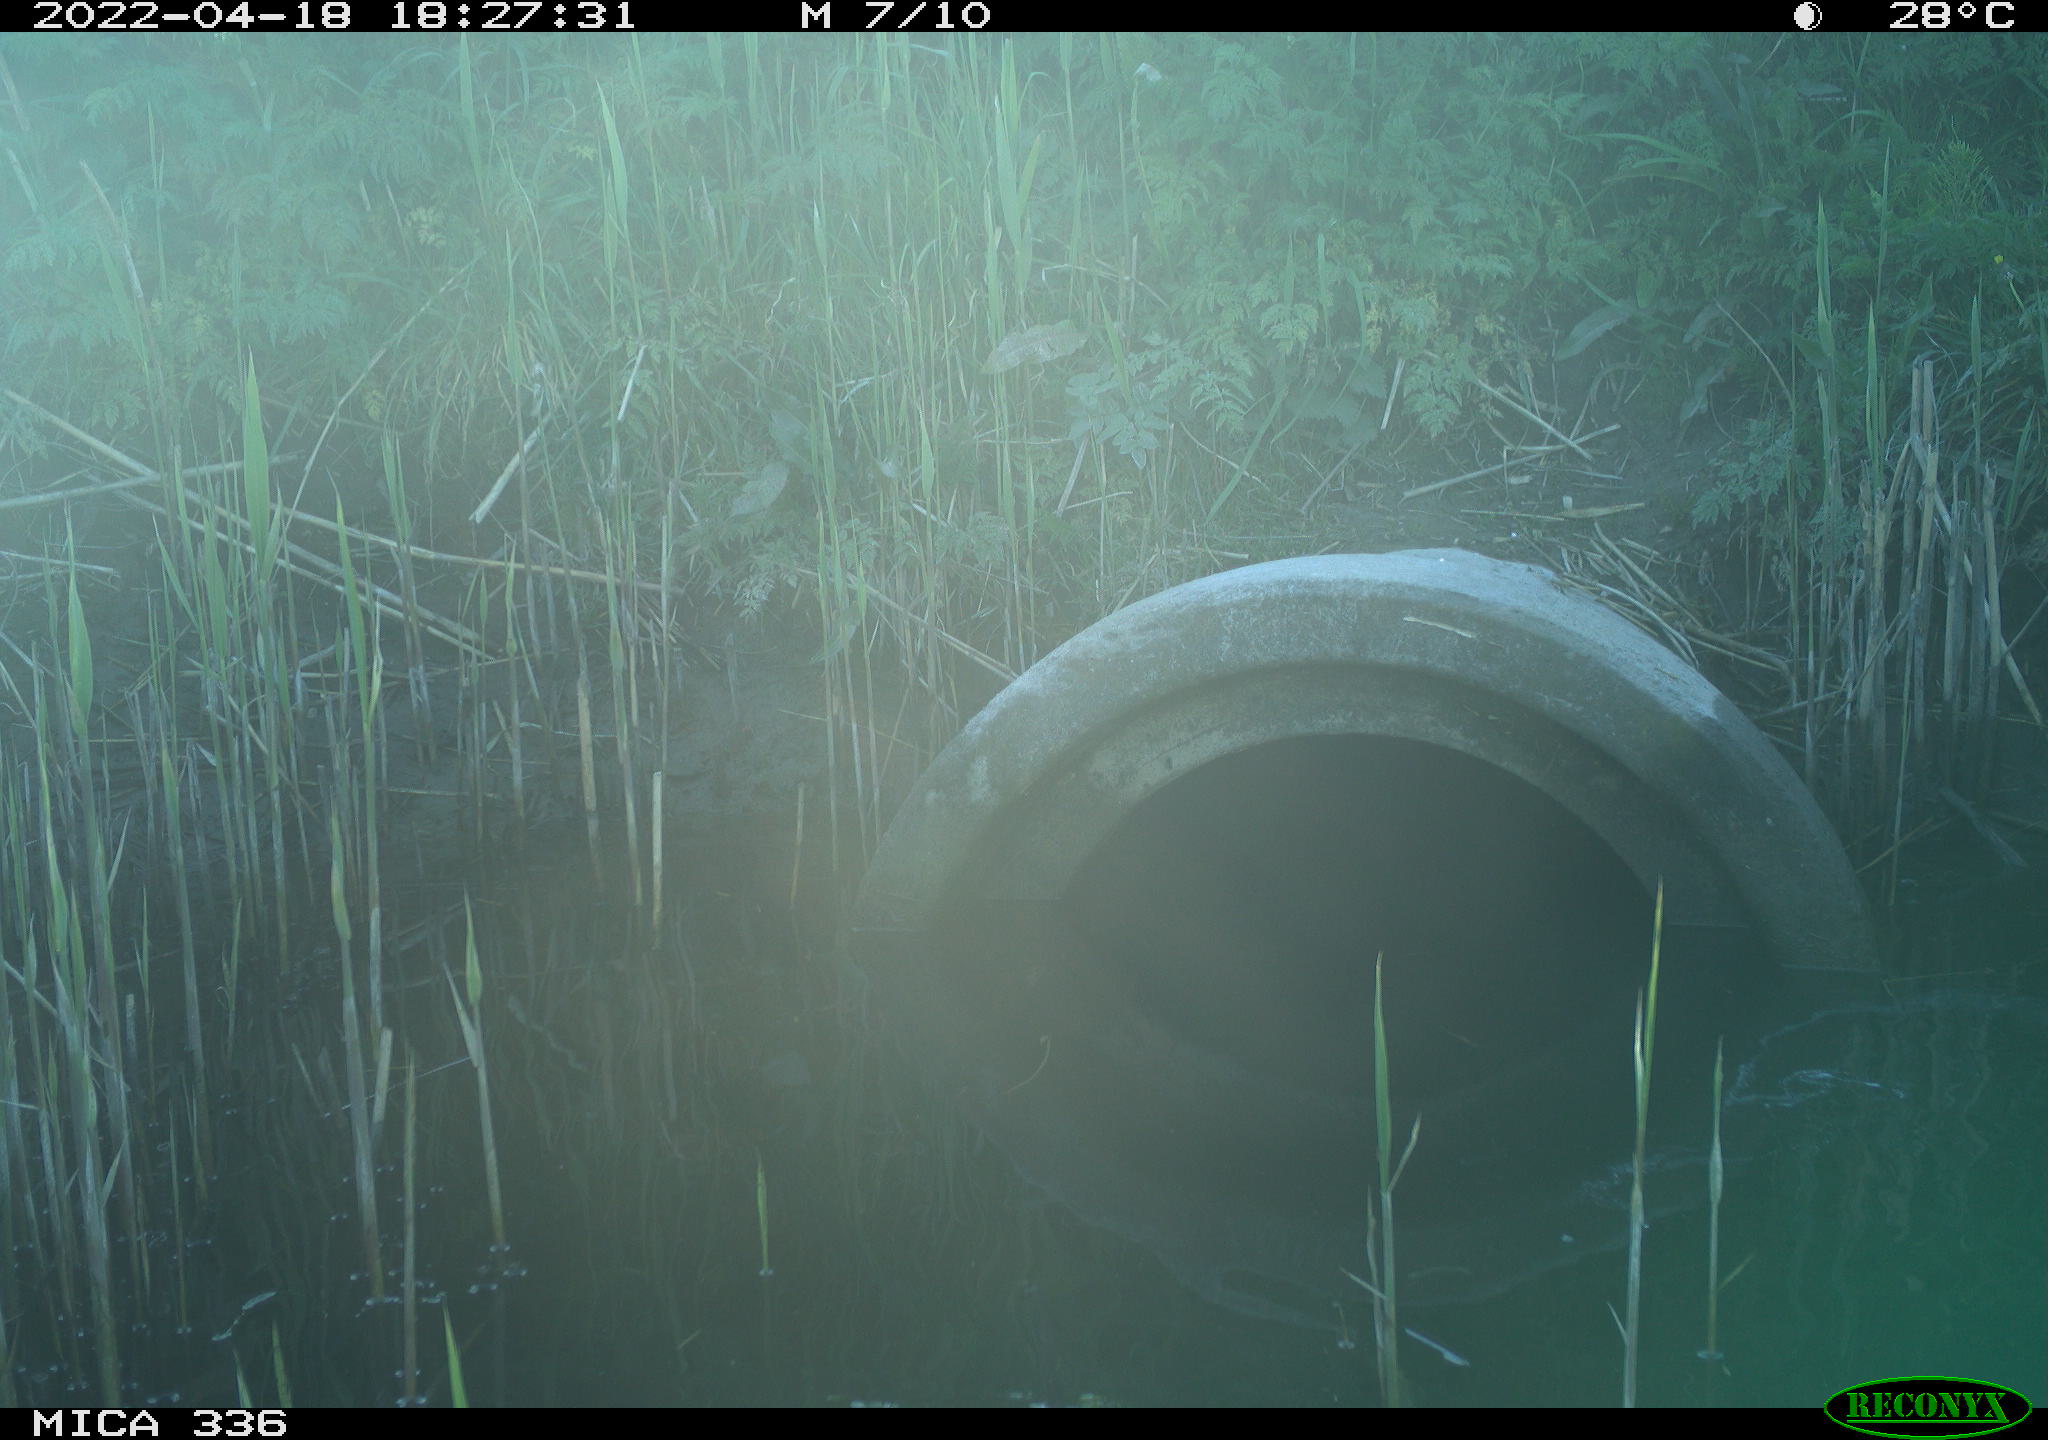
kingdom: Animalia
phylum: Chordata
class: Aves
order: Pelecaniformes
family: Ardeidae
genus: Ardea
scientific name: Ardea cinerea
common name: Grey heron
